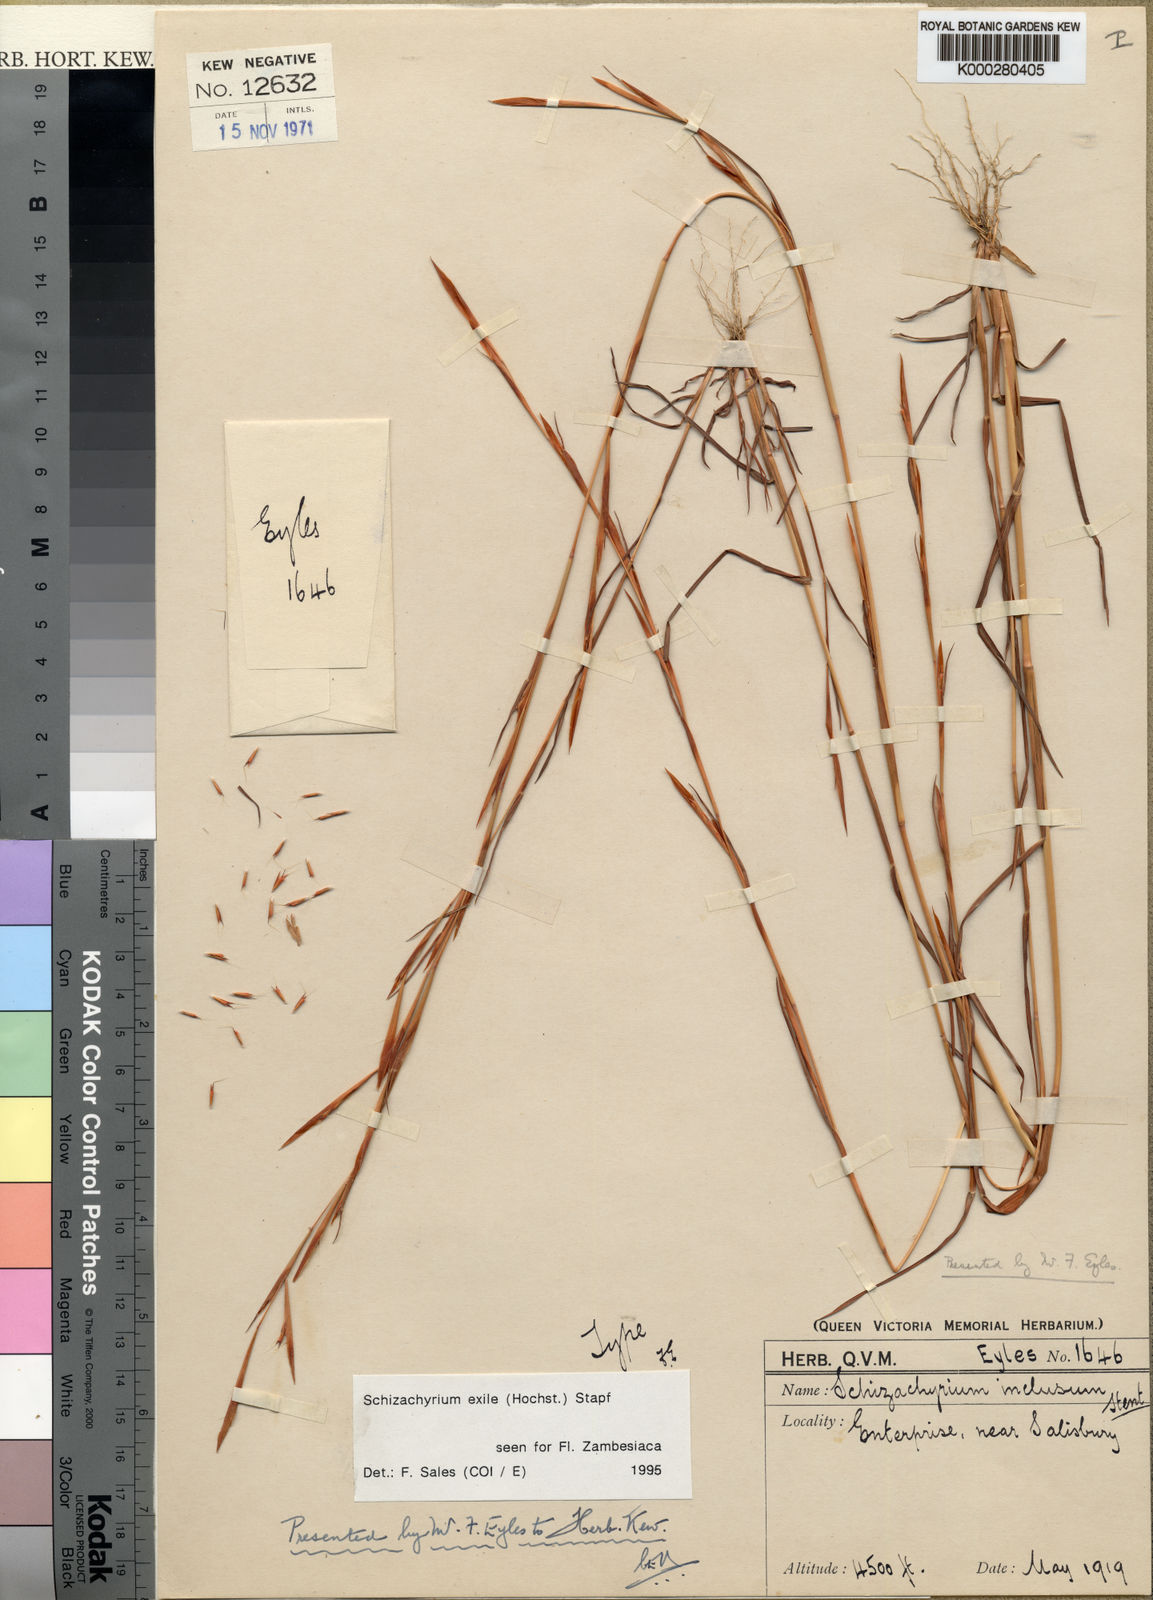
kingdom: Plantae
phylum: Tracheophyta
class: Liliopsida
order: Poales
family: Poaceae
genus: Schizachyrium
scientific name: Schizachyrium exile
